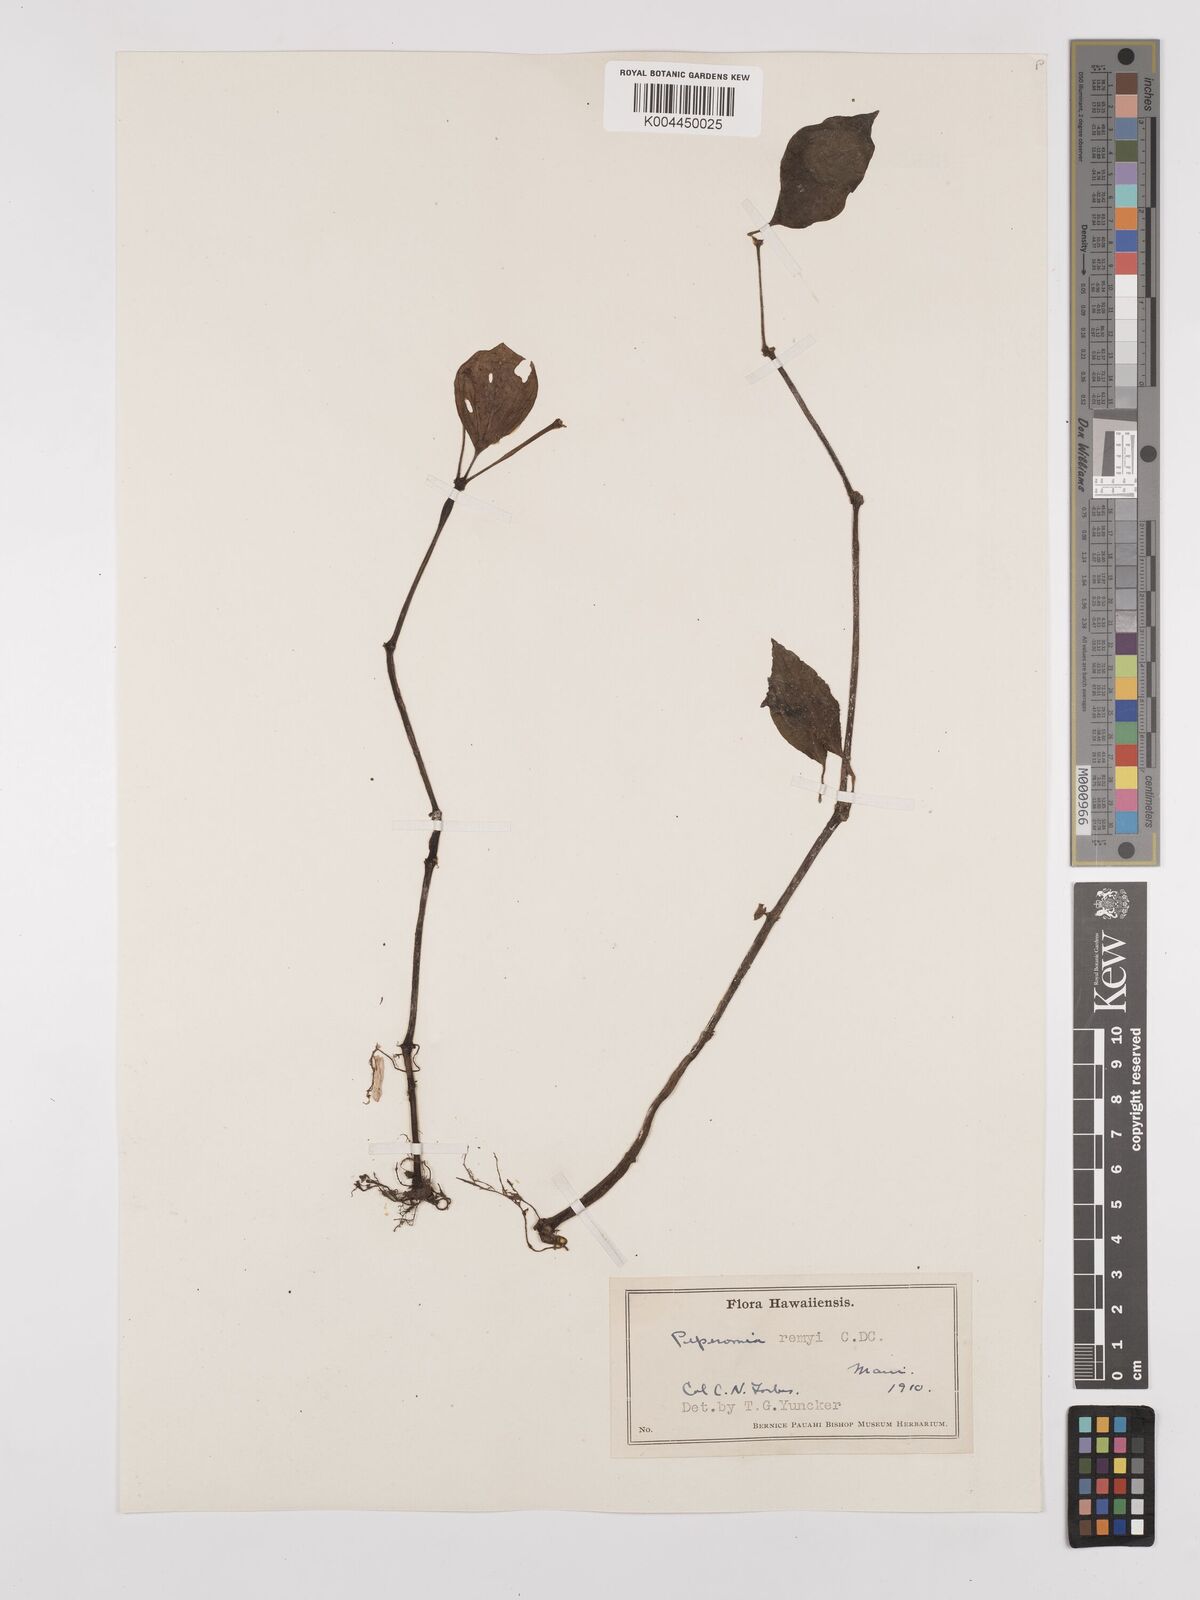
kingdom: Plantae
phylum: Tracheophyta
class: Magnoliopsida
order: Piperales
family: Piperaceae
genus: Peperomia
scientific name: Peperomia remyi
